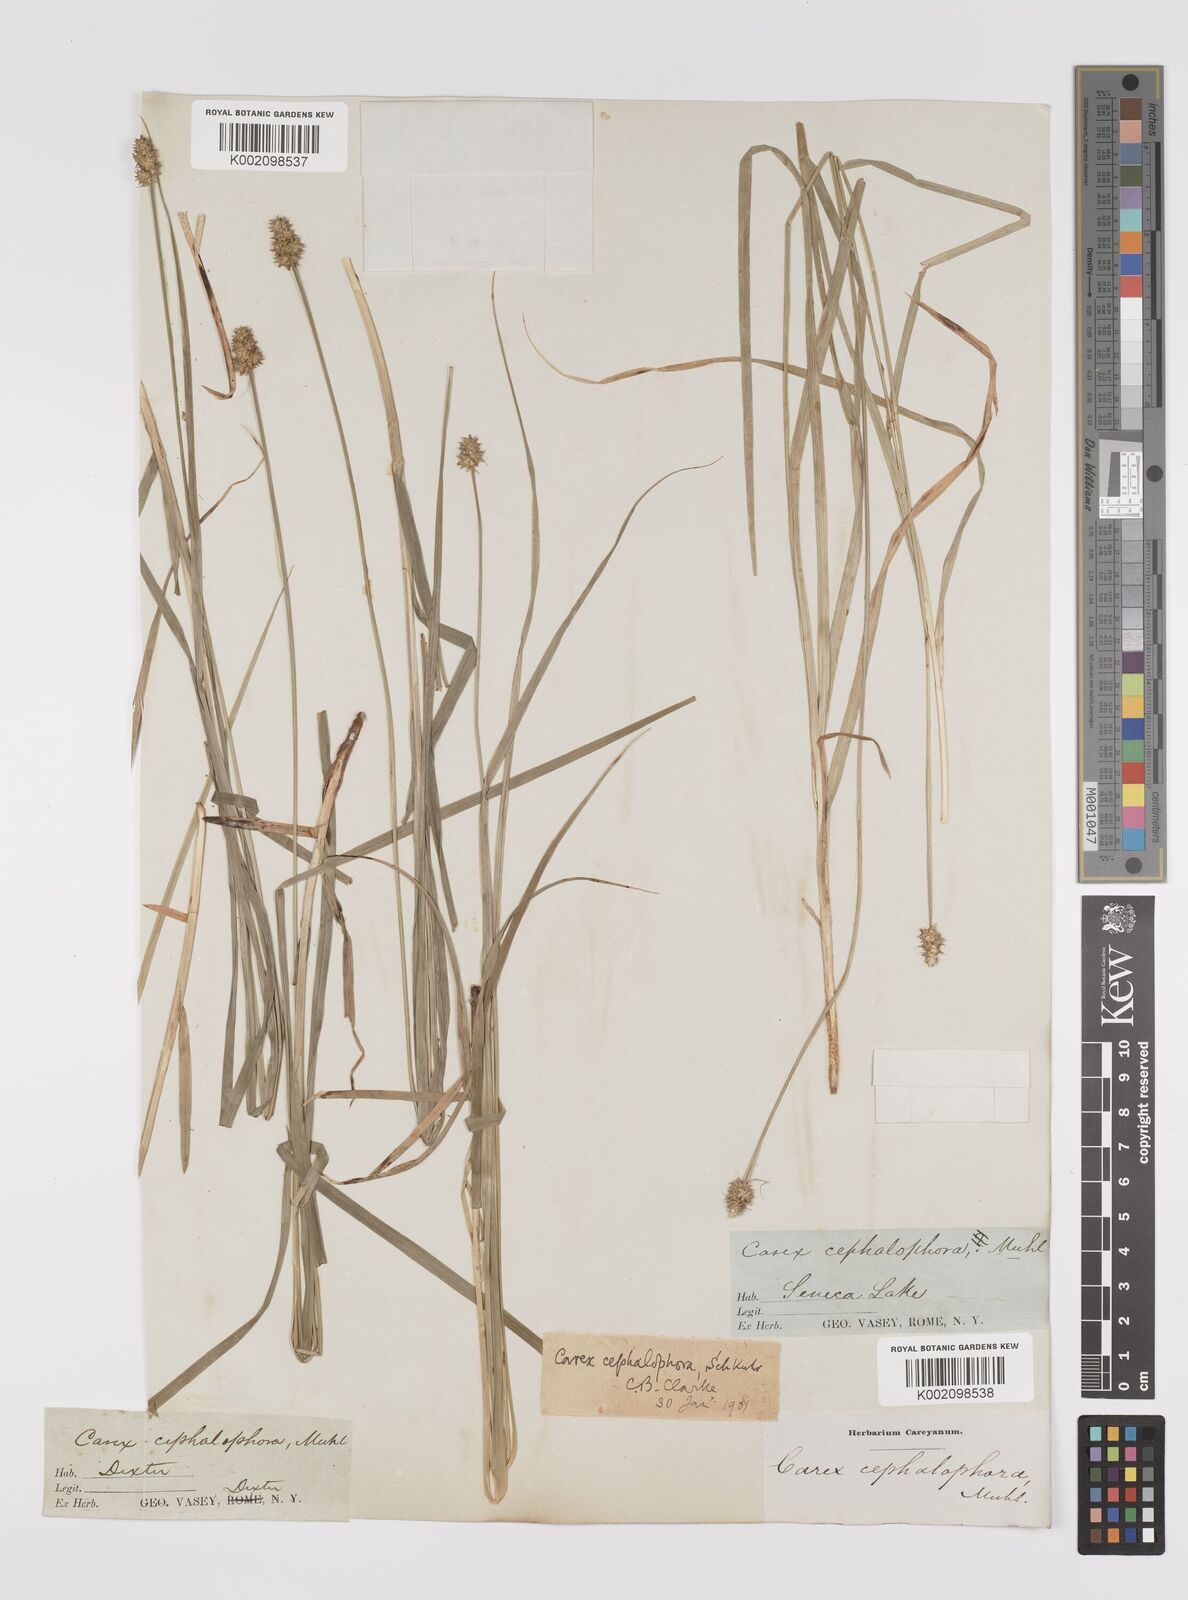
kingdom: Plantae
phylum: Tracheophyta
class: Liliopsida
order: Poales
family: Cyperaceae
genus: Carex
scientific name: Carex cephalophora
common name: Oval-headed sedge
